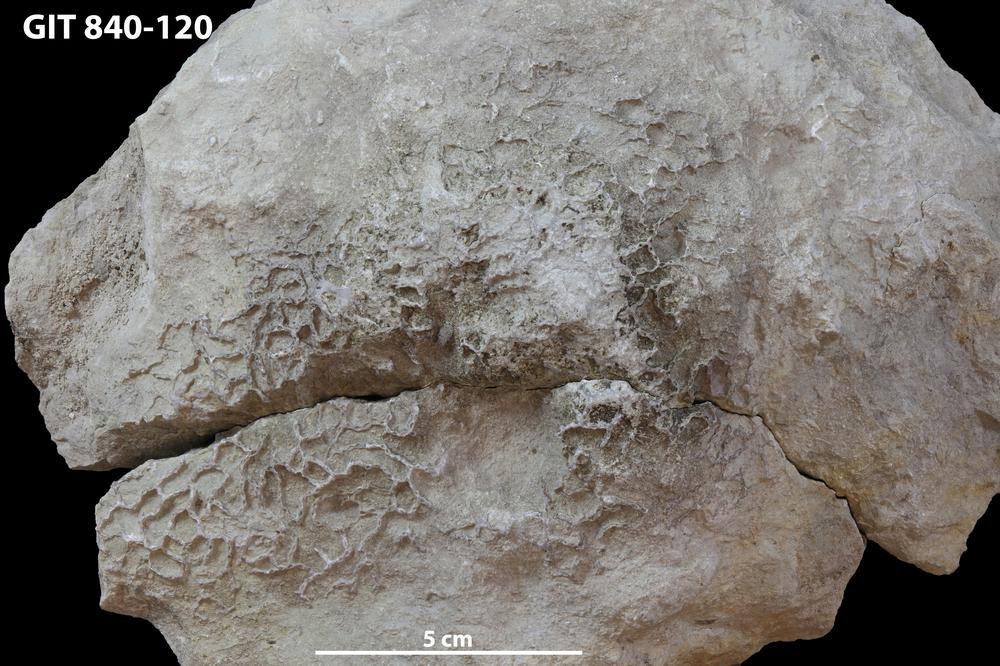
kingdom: Animalia
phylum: Cnidaria
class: Anthozoa
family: Cateniporidae
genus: Catenipora
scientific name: Catenipora
